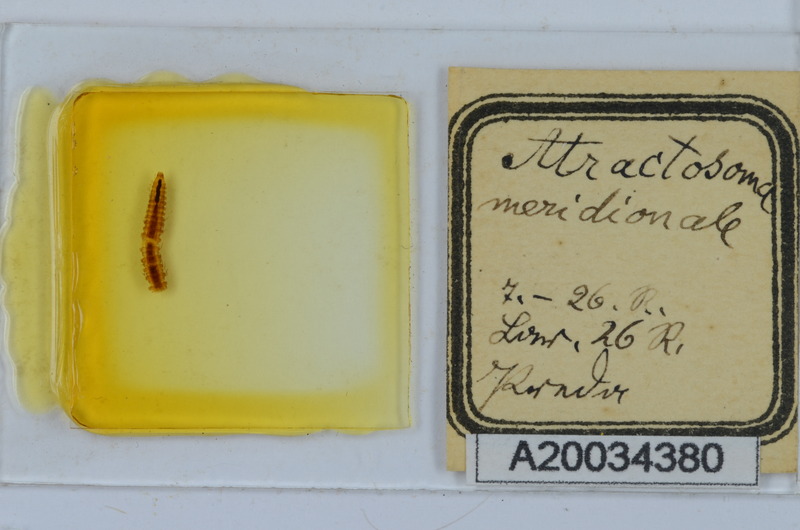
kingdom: Animalia
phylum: Arthropoda
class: Diplopoda
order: Chordeumatida
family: Craspedosomatidae
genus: Atractosoma
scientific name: Atractosoma meridionale
